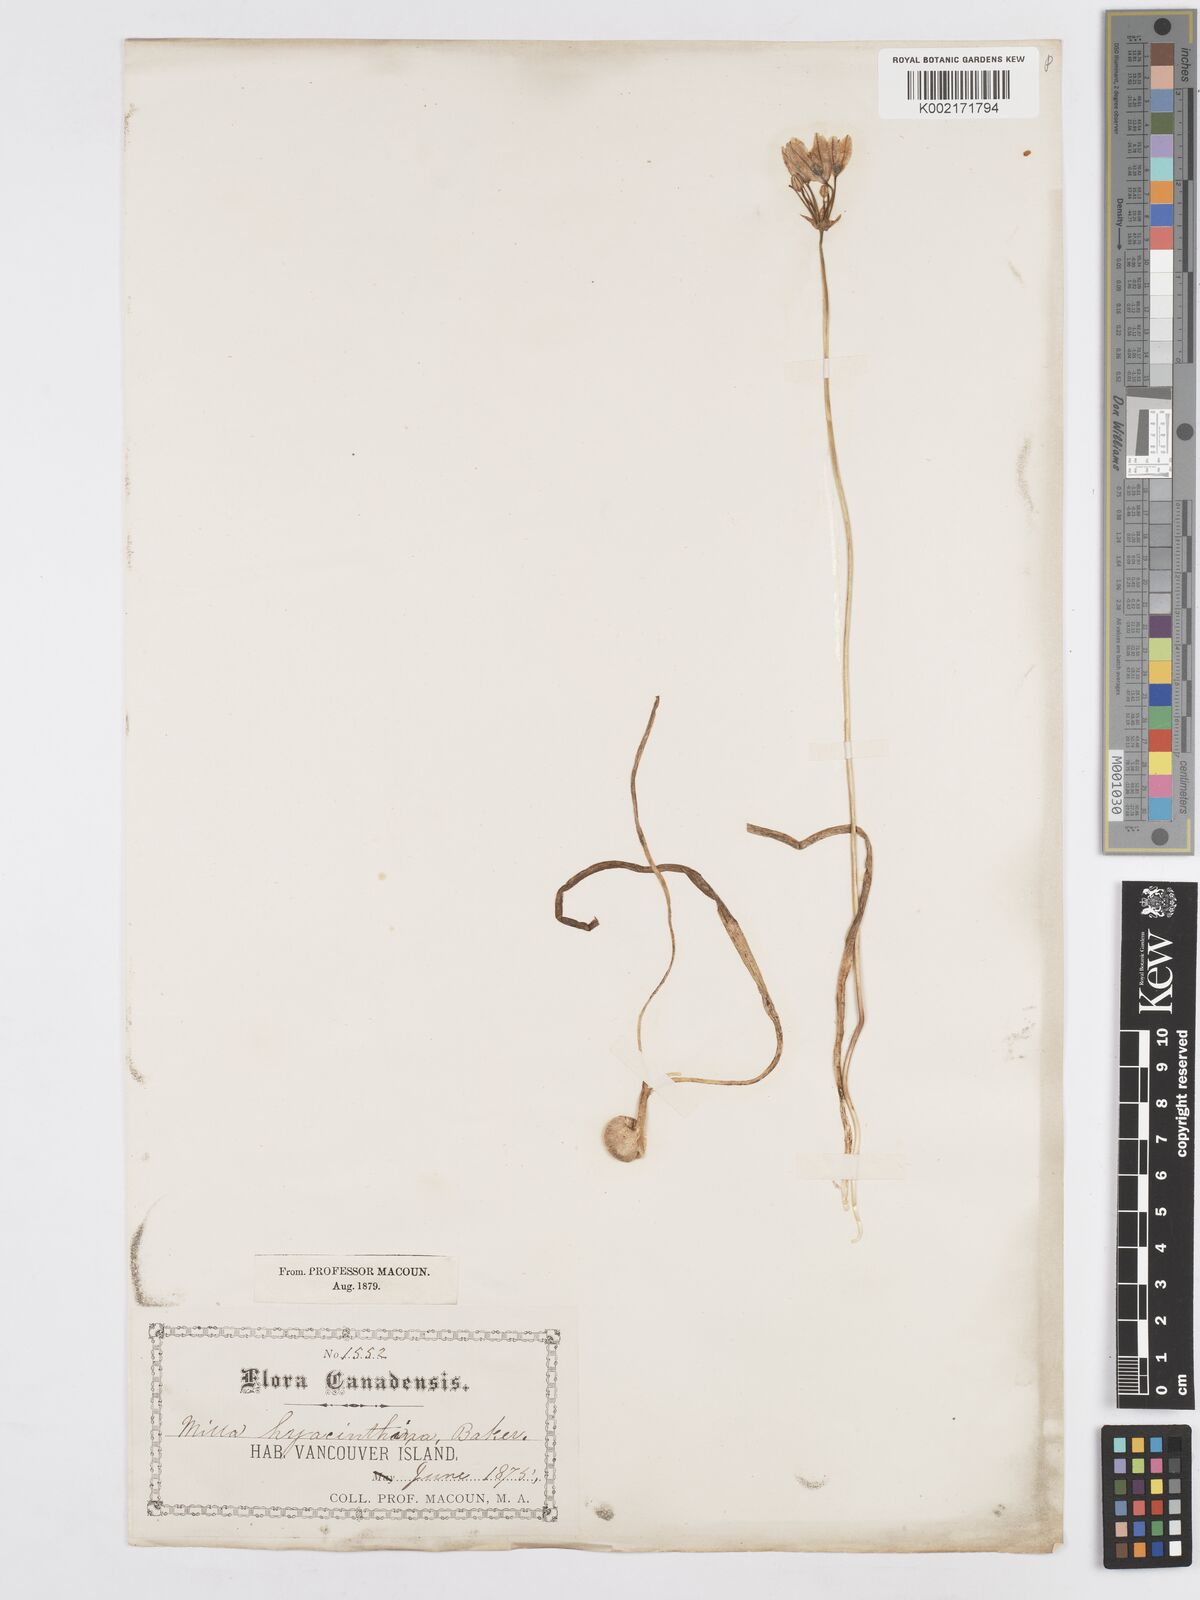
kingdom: Plantae
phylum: Tracheophyta
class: Liliopsida
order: Asparagales
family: Asparagaceae
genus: Triteleia
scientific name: Triteleia hyacinthina
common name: White brodiaea
